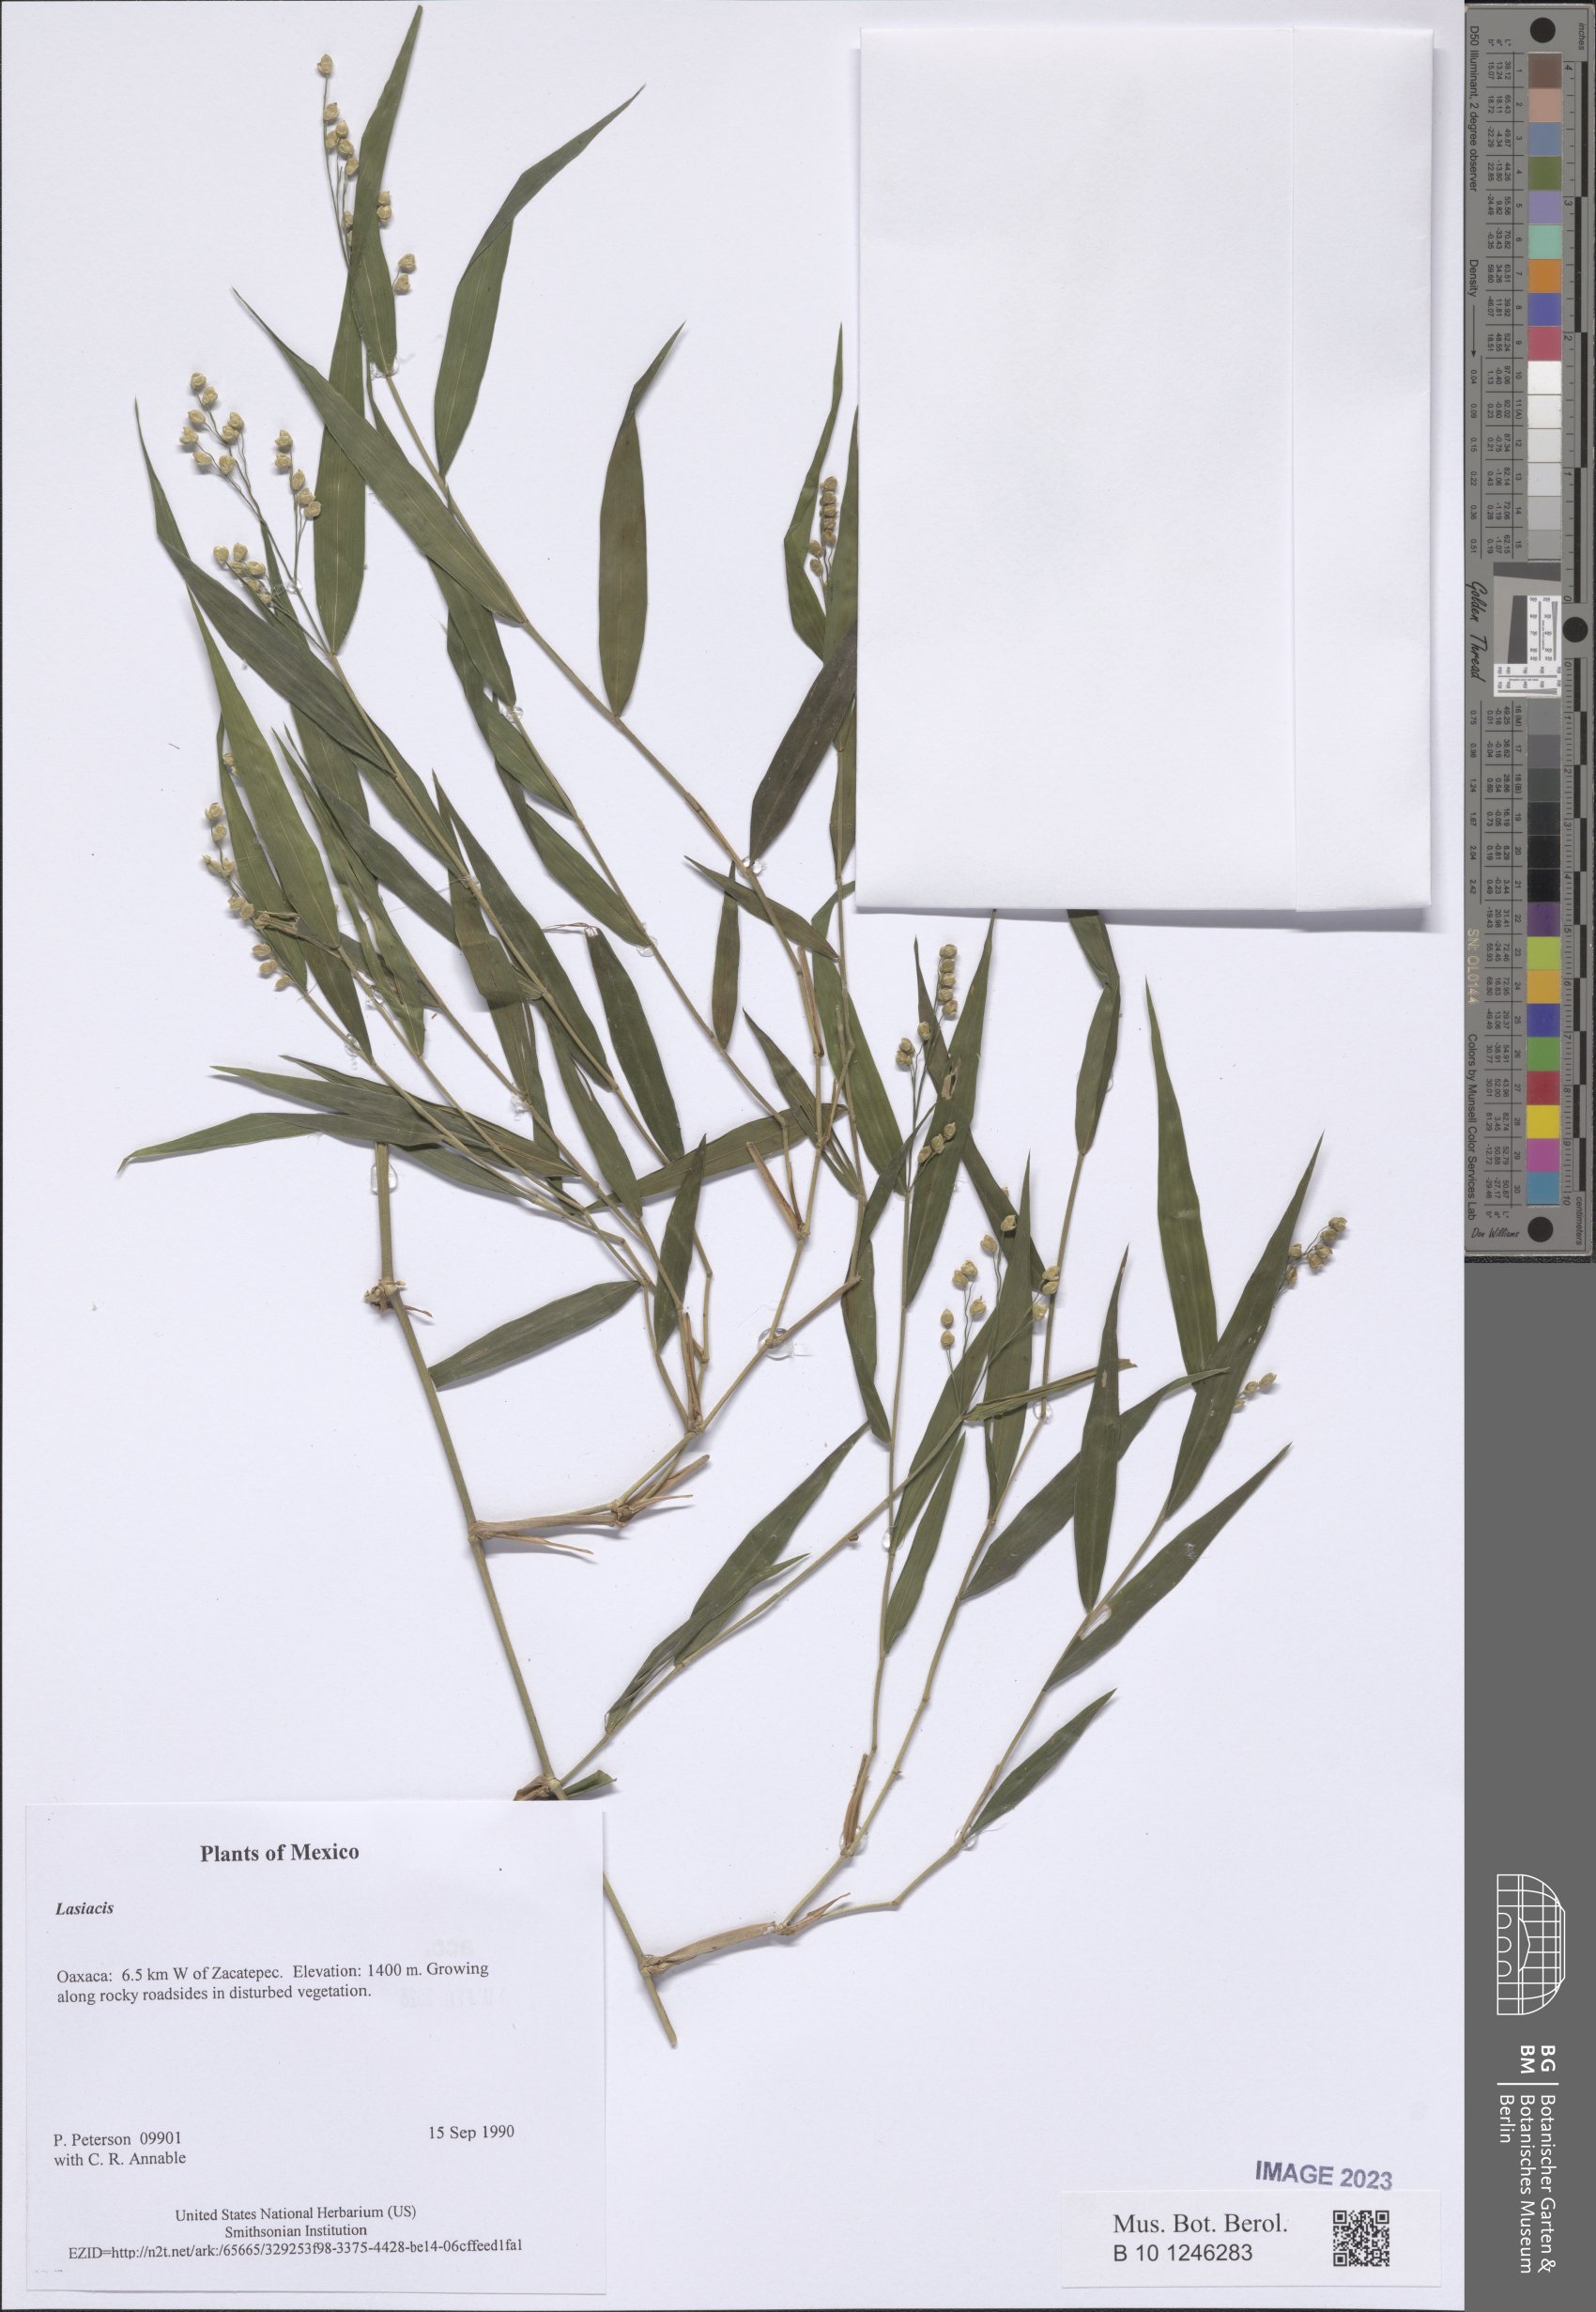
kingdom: Plantae
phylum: Tracheophyta
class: Liliopsida
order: Poales
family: Poaceae
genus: Lasiacis
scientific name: Lasiacis
